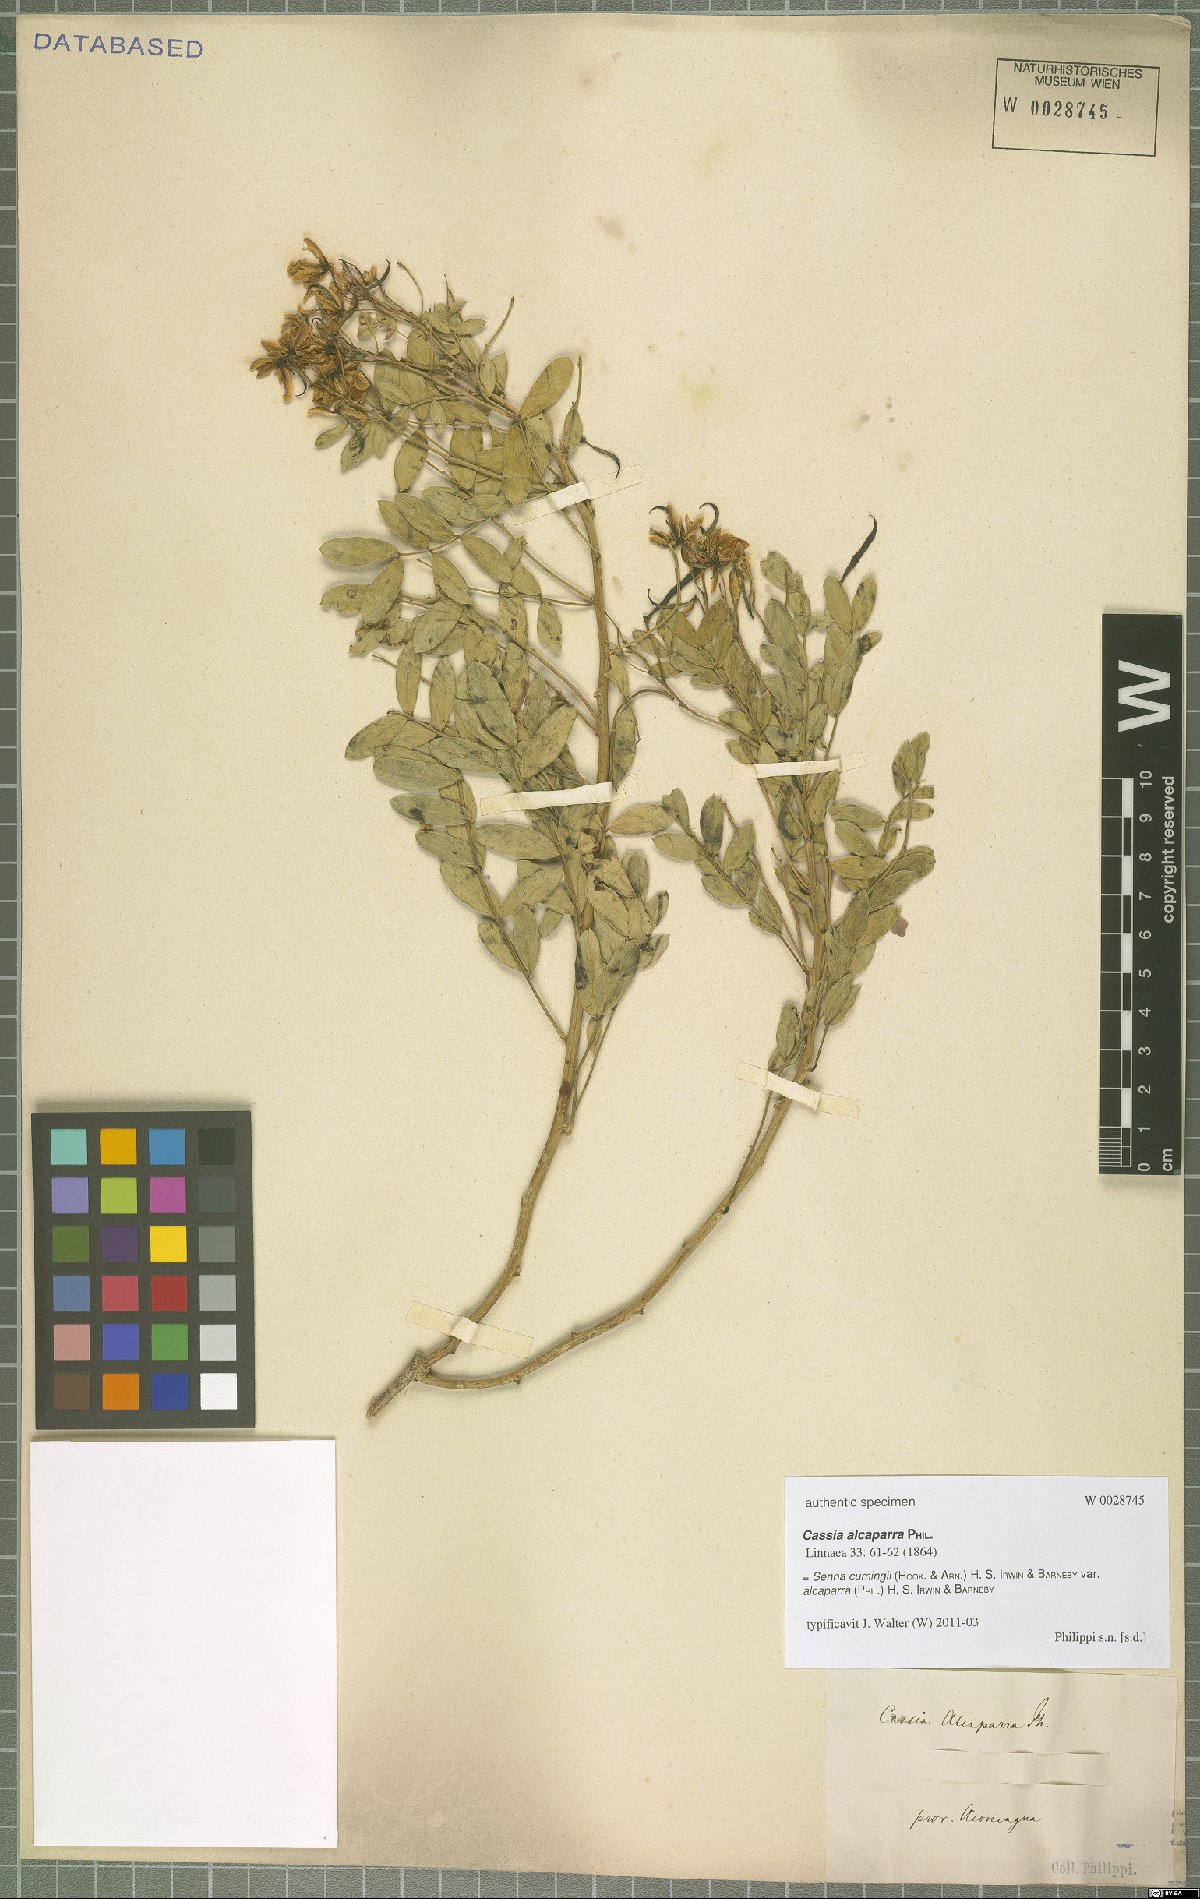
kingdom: Plantae
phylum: Tracheophyta
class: Magnoliopsida
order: Fabales
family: Fabaceae
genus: Senna
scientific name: Senna cumingii
